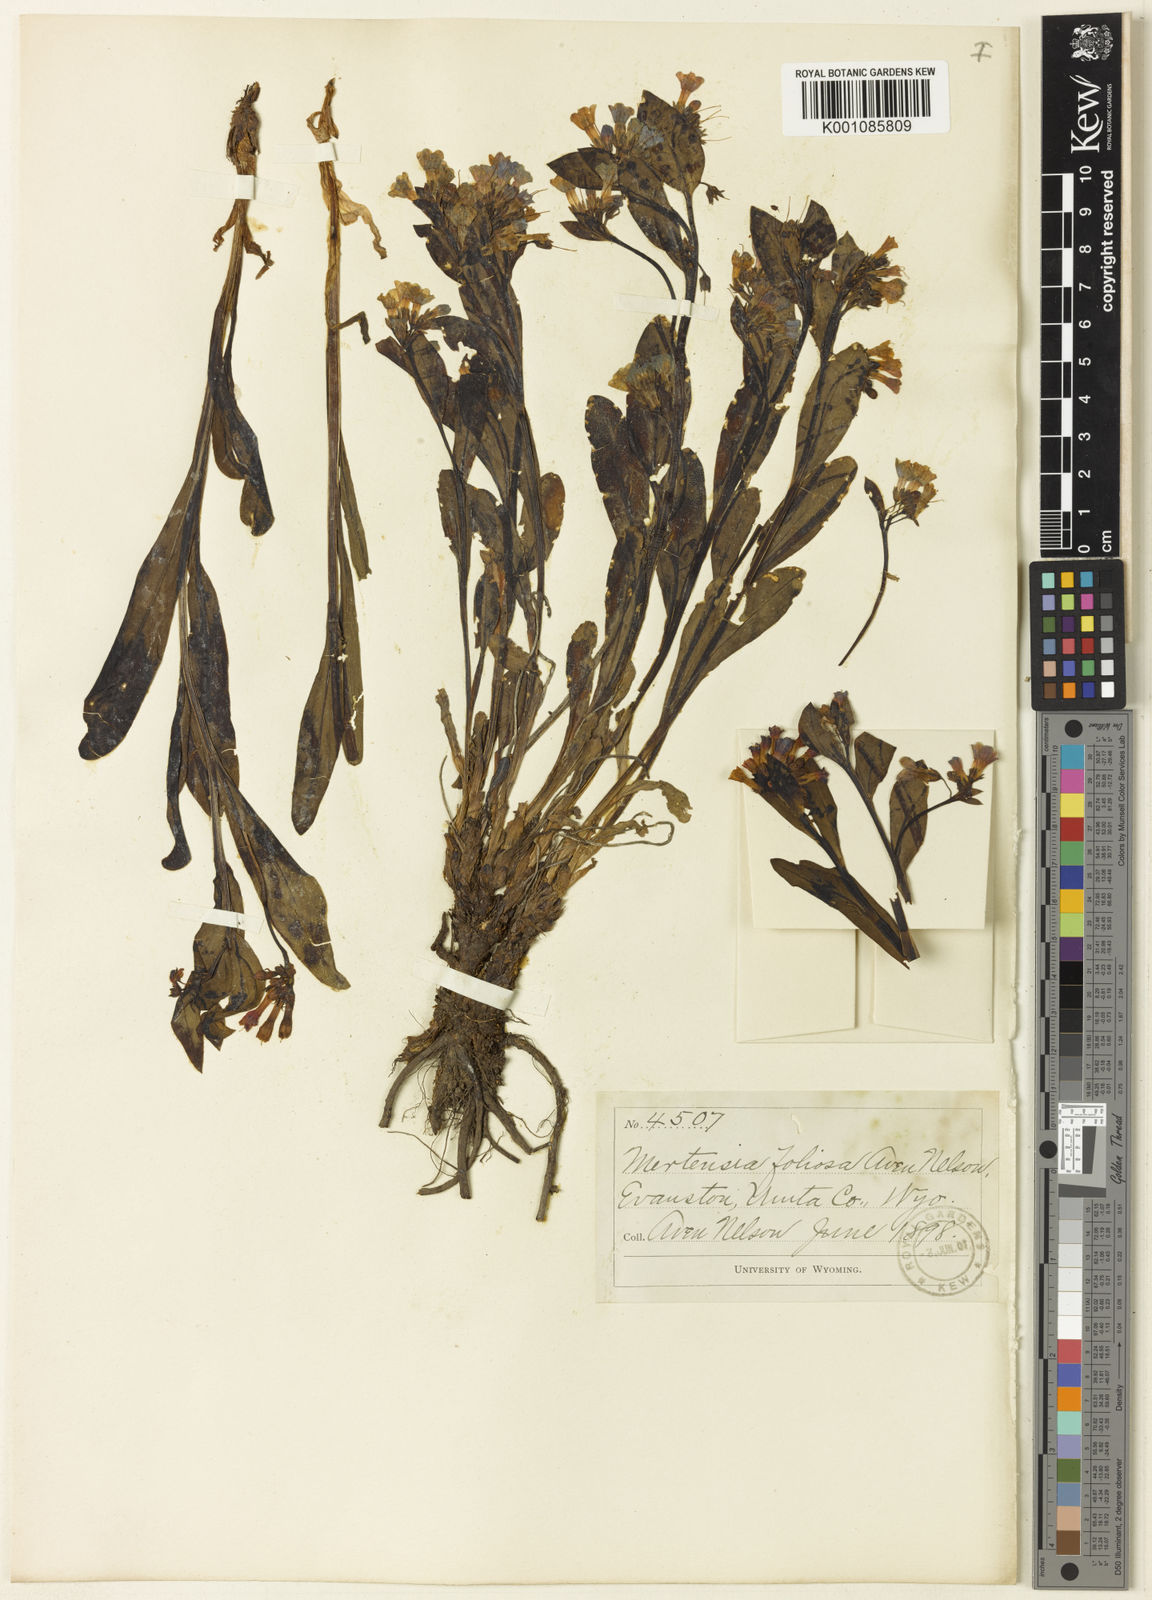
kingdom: Plantae
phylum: Tracheophyta
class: Magnoliopsida
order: Boraginales
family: Boraginaceae
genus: Mertensia
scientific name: Mertensia nevadensis
